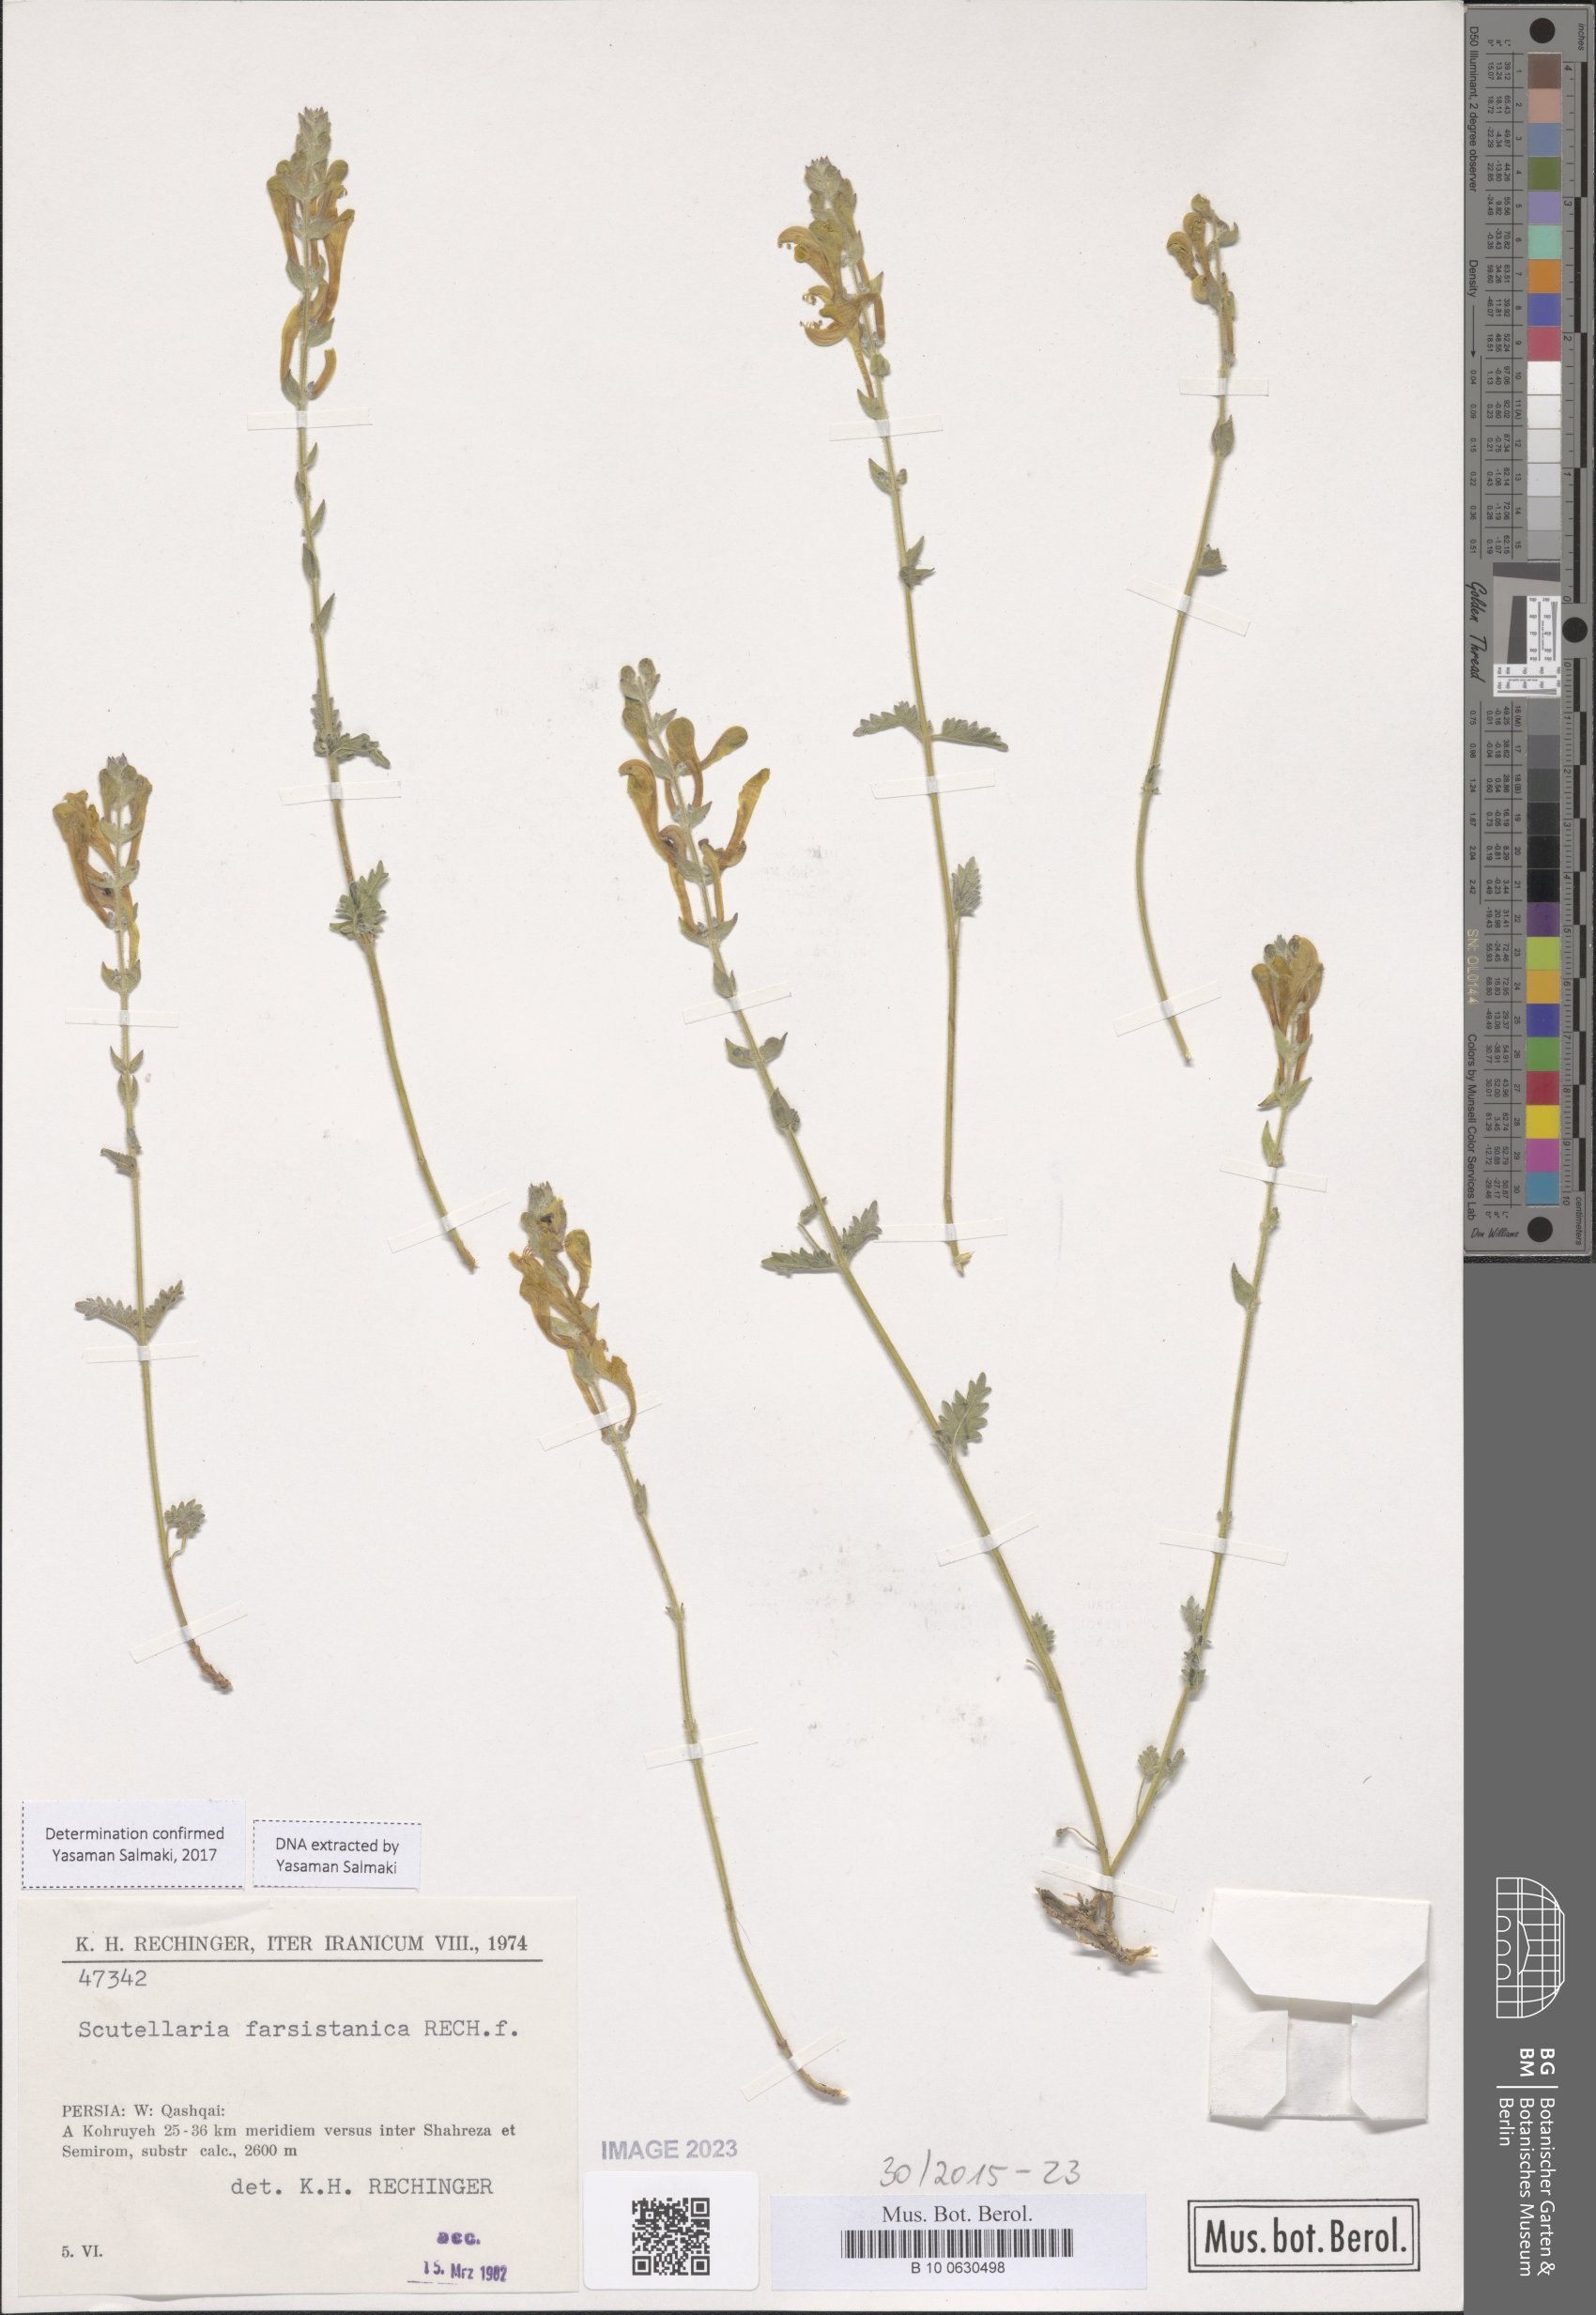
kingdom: Plantae
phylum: Tracheophyta
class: Magnoliopsida
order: Lamiales
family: Lamiaceae
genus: Scutellaria
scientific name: Scutellaria farsistanica
